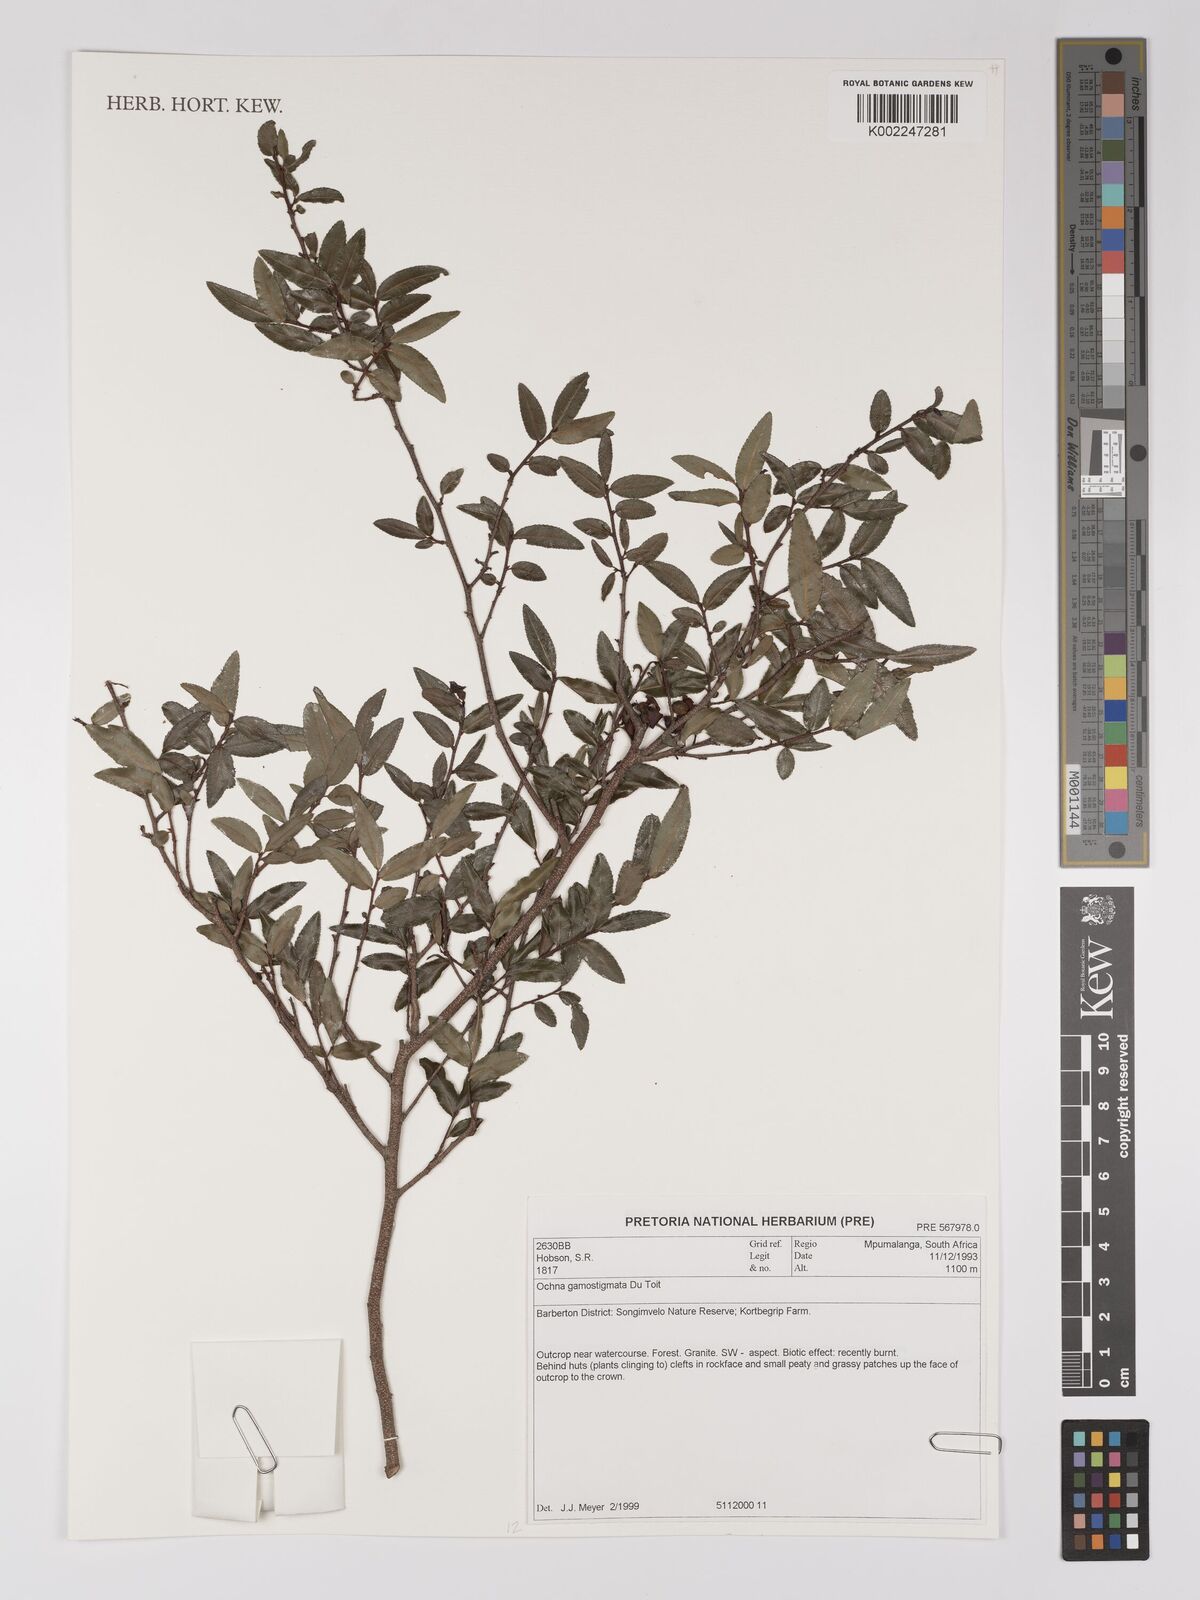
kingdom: Plantae
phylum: Tracheophyta
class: Magnoliopsida
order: Malpighiales
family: Ochnaceae
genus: Ochna
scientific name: Ochna gamostigmata
